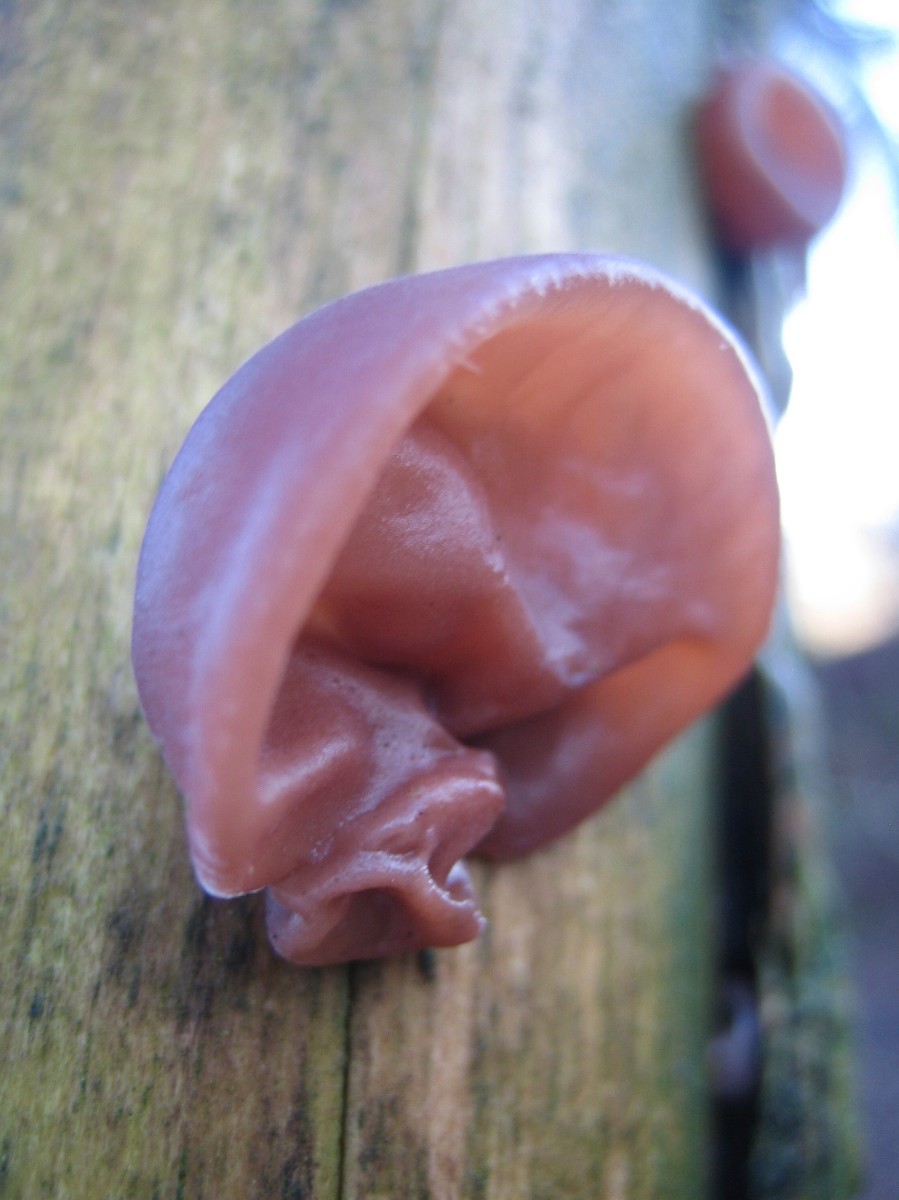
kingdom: Fungi
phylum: Basidiomycota
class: Agaricomycetes
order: Auriculariales
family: Auriculariaceae
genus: Auricularia
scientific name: Auricularia auricula-judae
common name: almindelig judasøre
